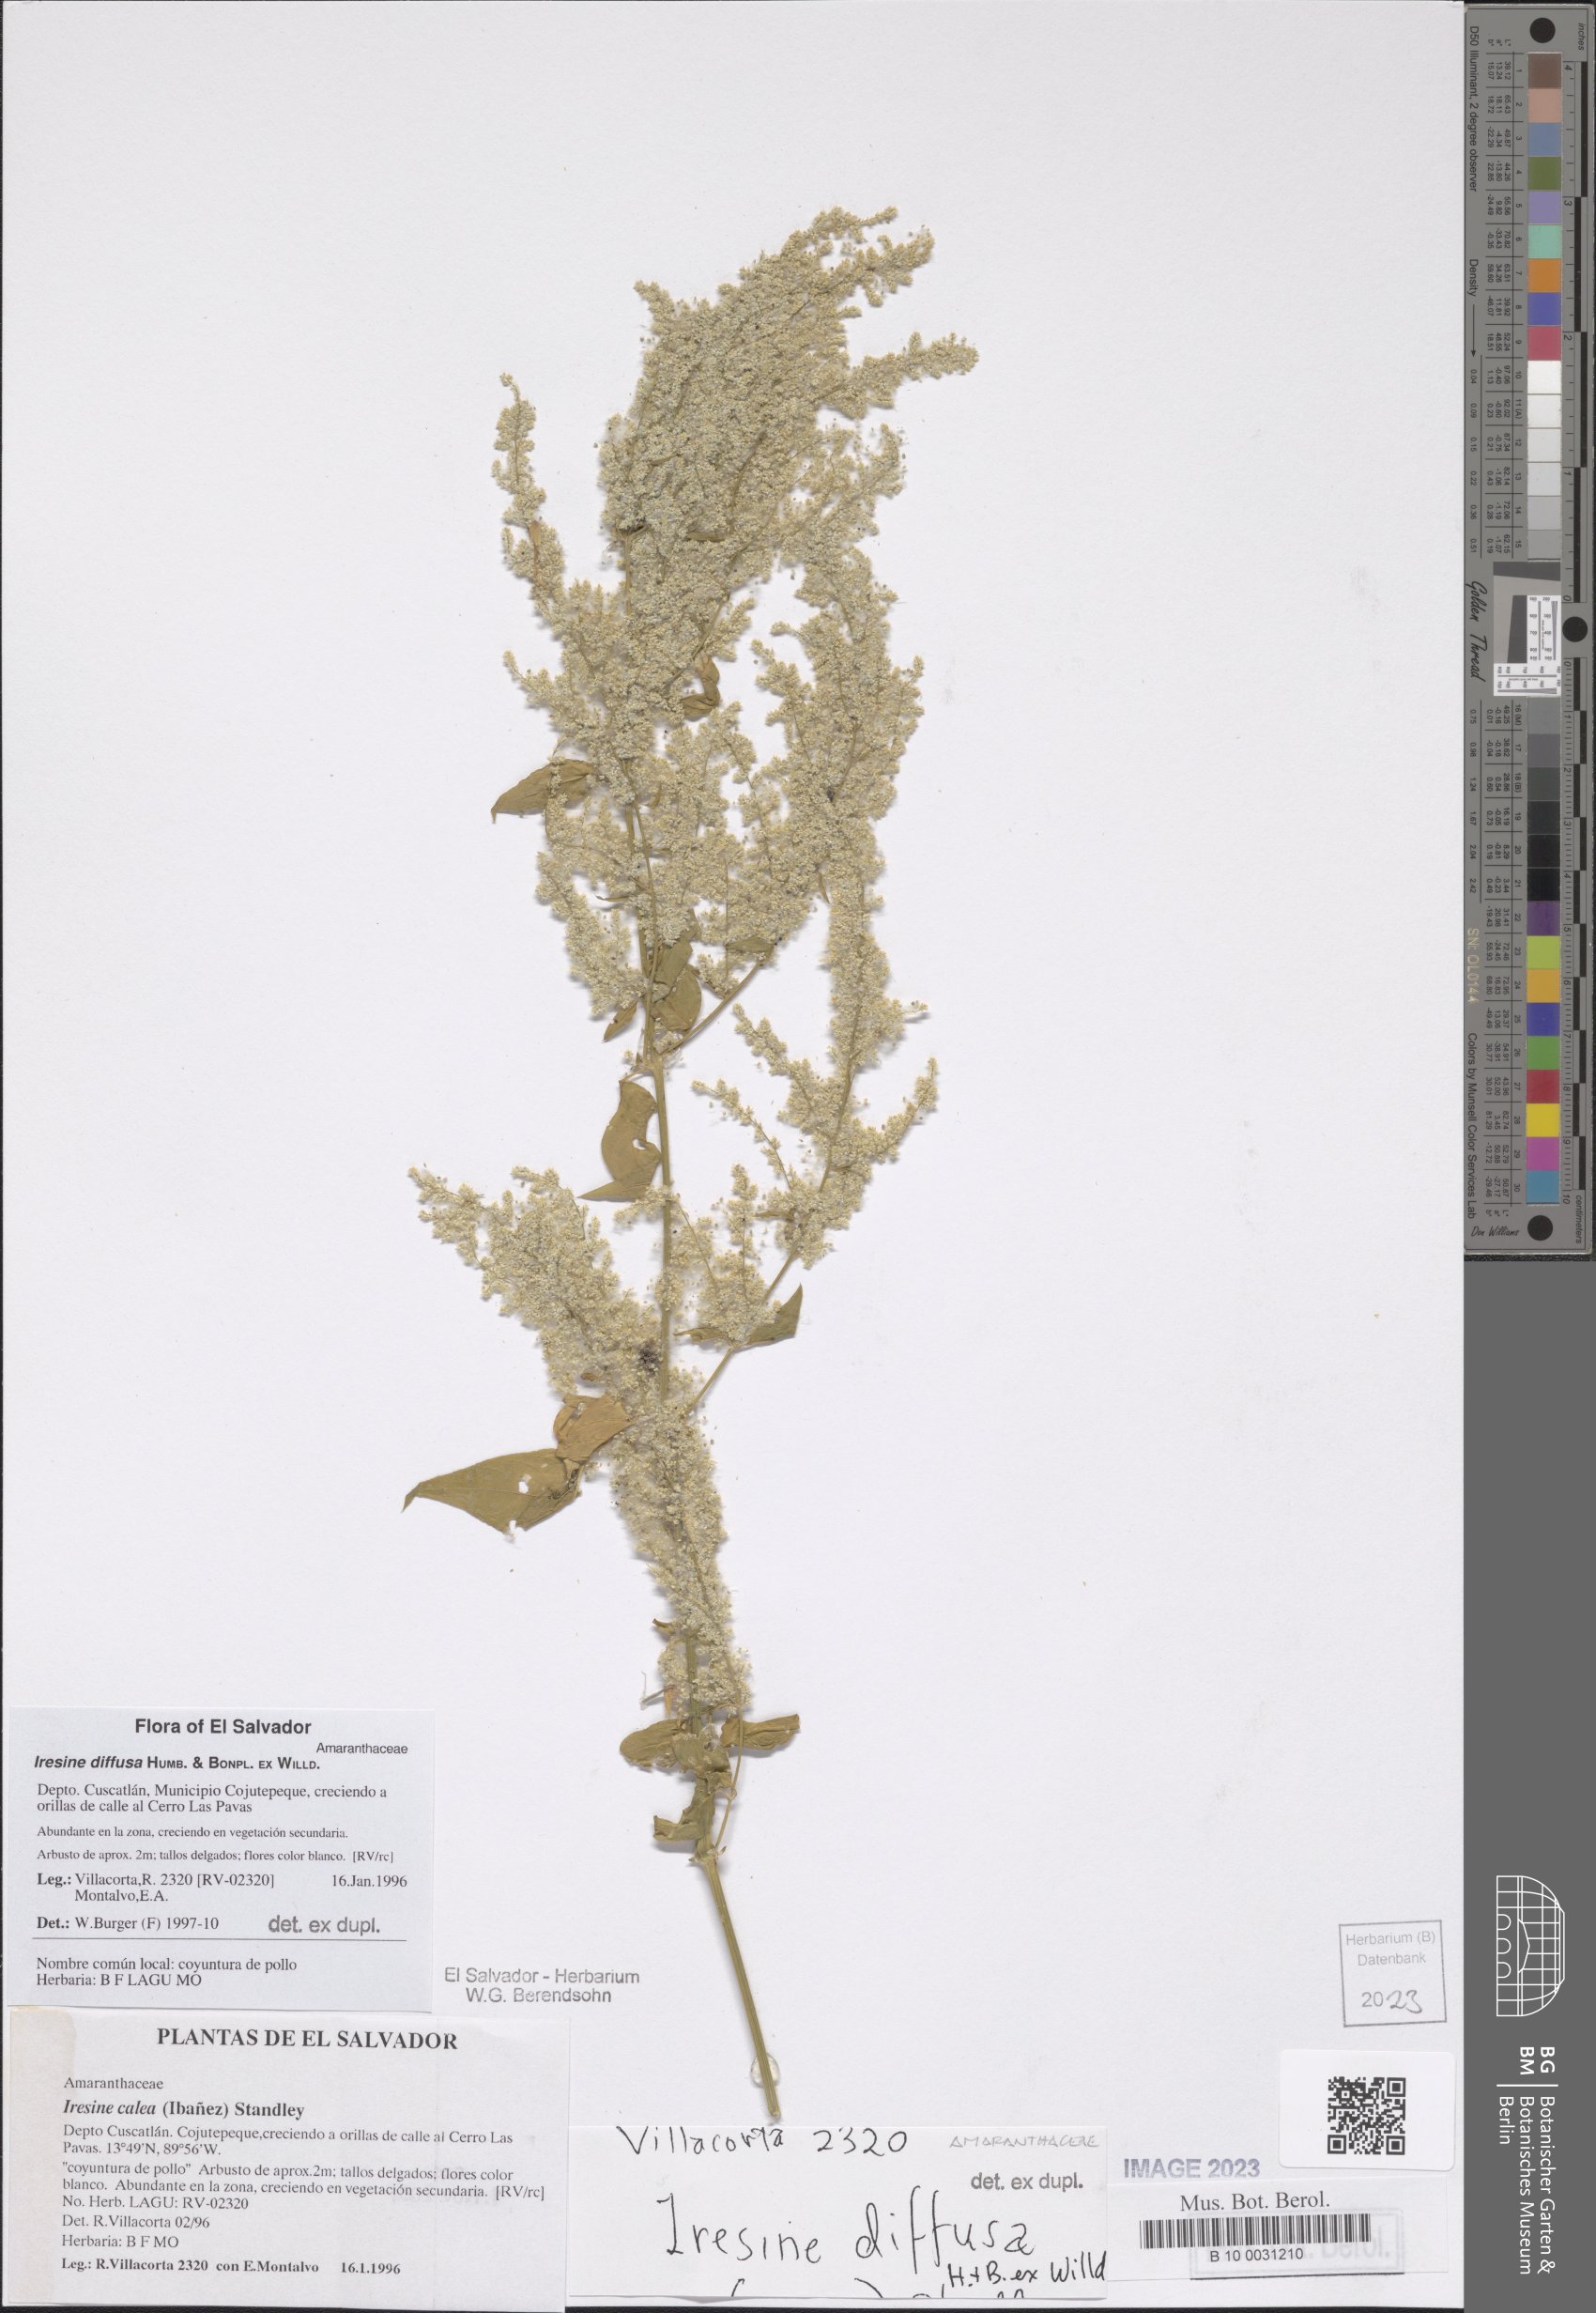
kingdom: Plantae
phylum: Tracheophyta
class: Magnoliopsida
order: Caryophyllales
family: Amaranthaceae
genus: Iresine
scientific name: Iresine diffusa
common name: Juba's-bush
